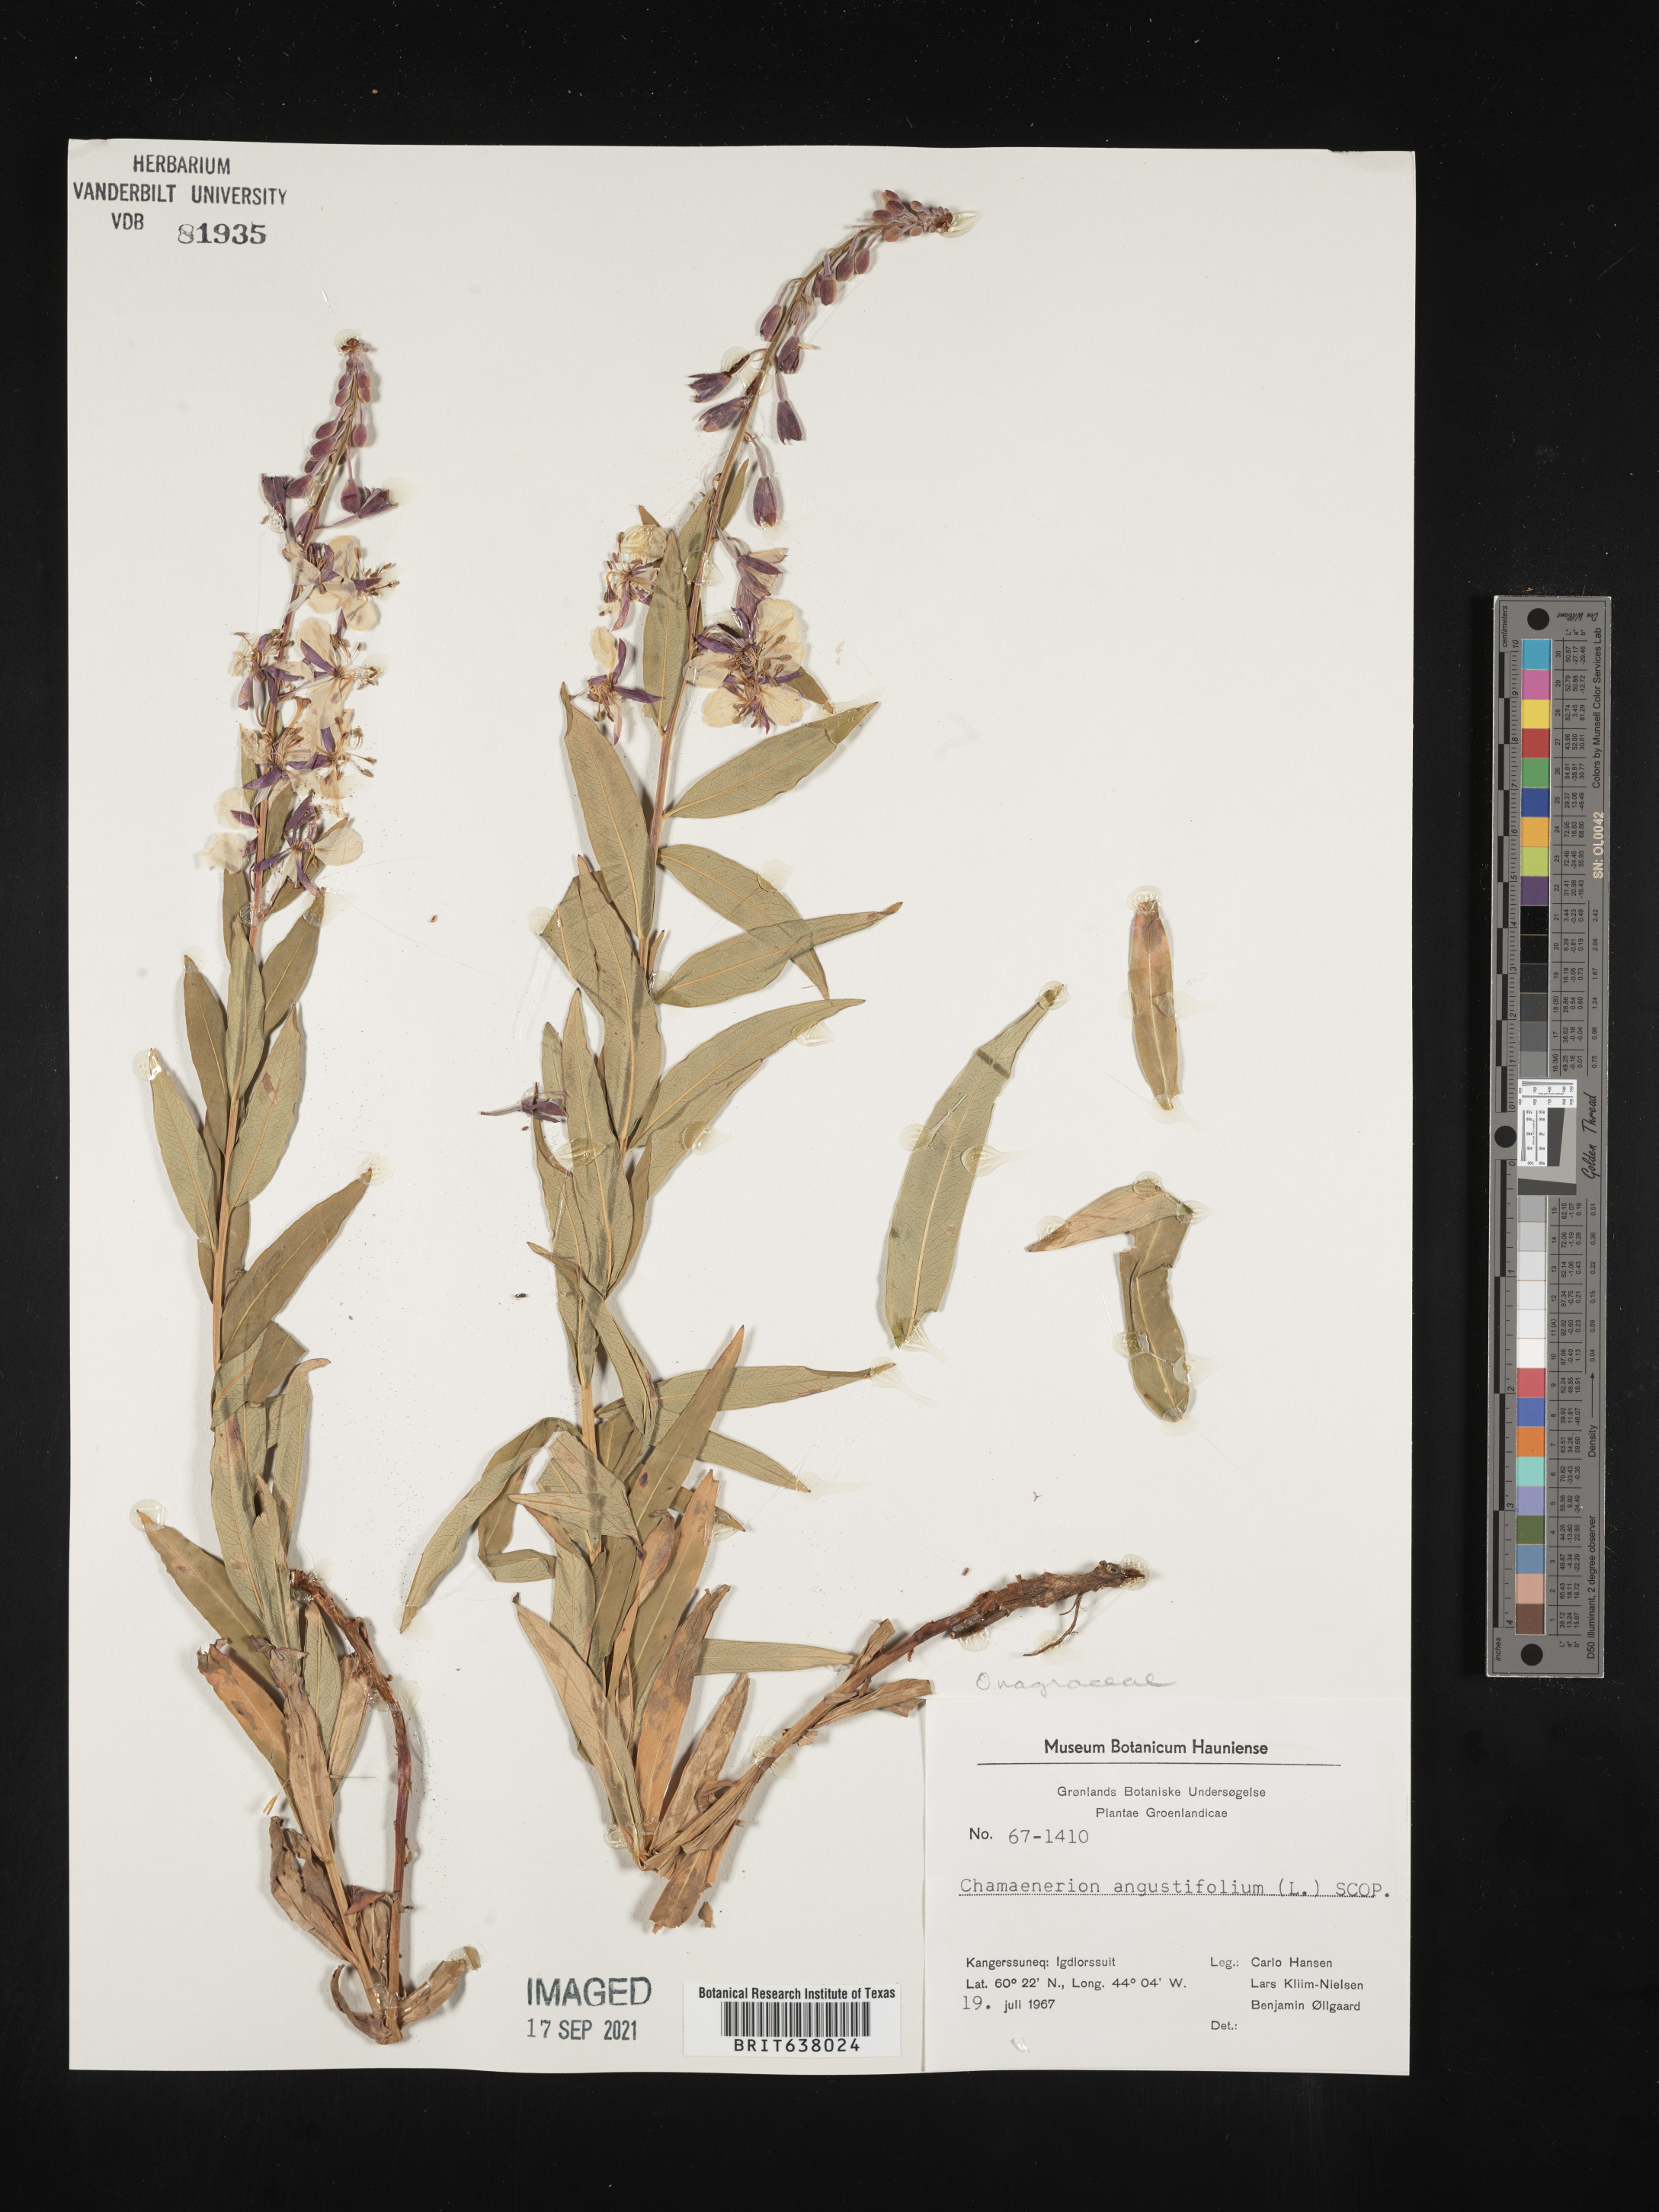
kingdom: Plantae
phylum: Tracheophyta
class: Magnoliopsida
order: Myrtales
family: Onagraceae
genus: Chamaenerion
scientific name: Chamaenerion
